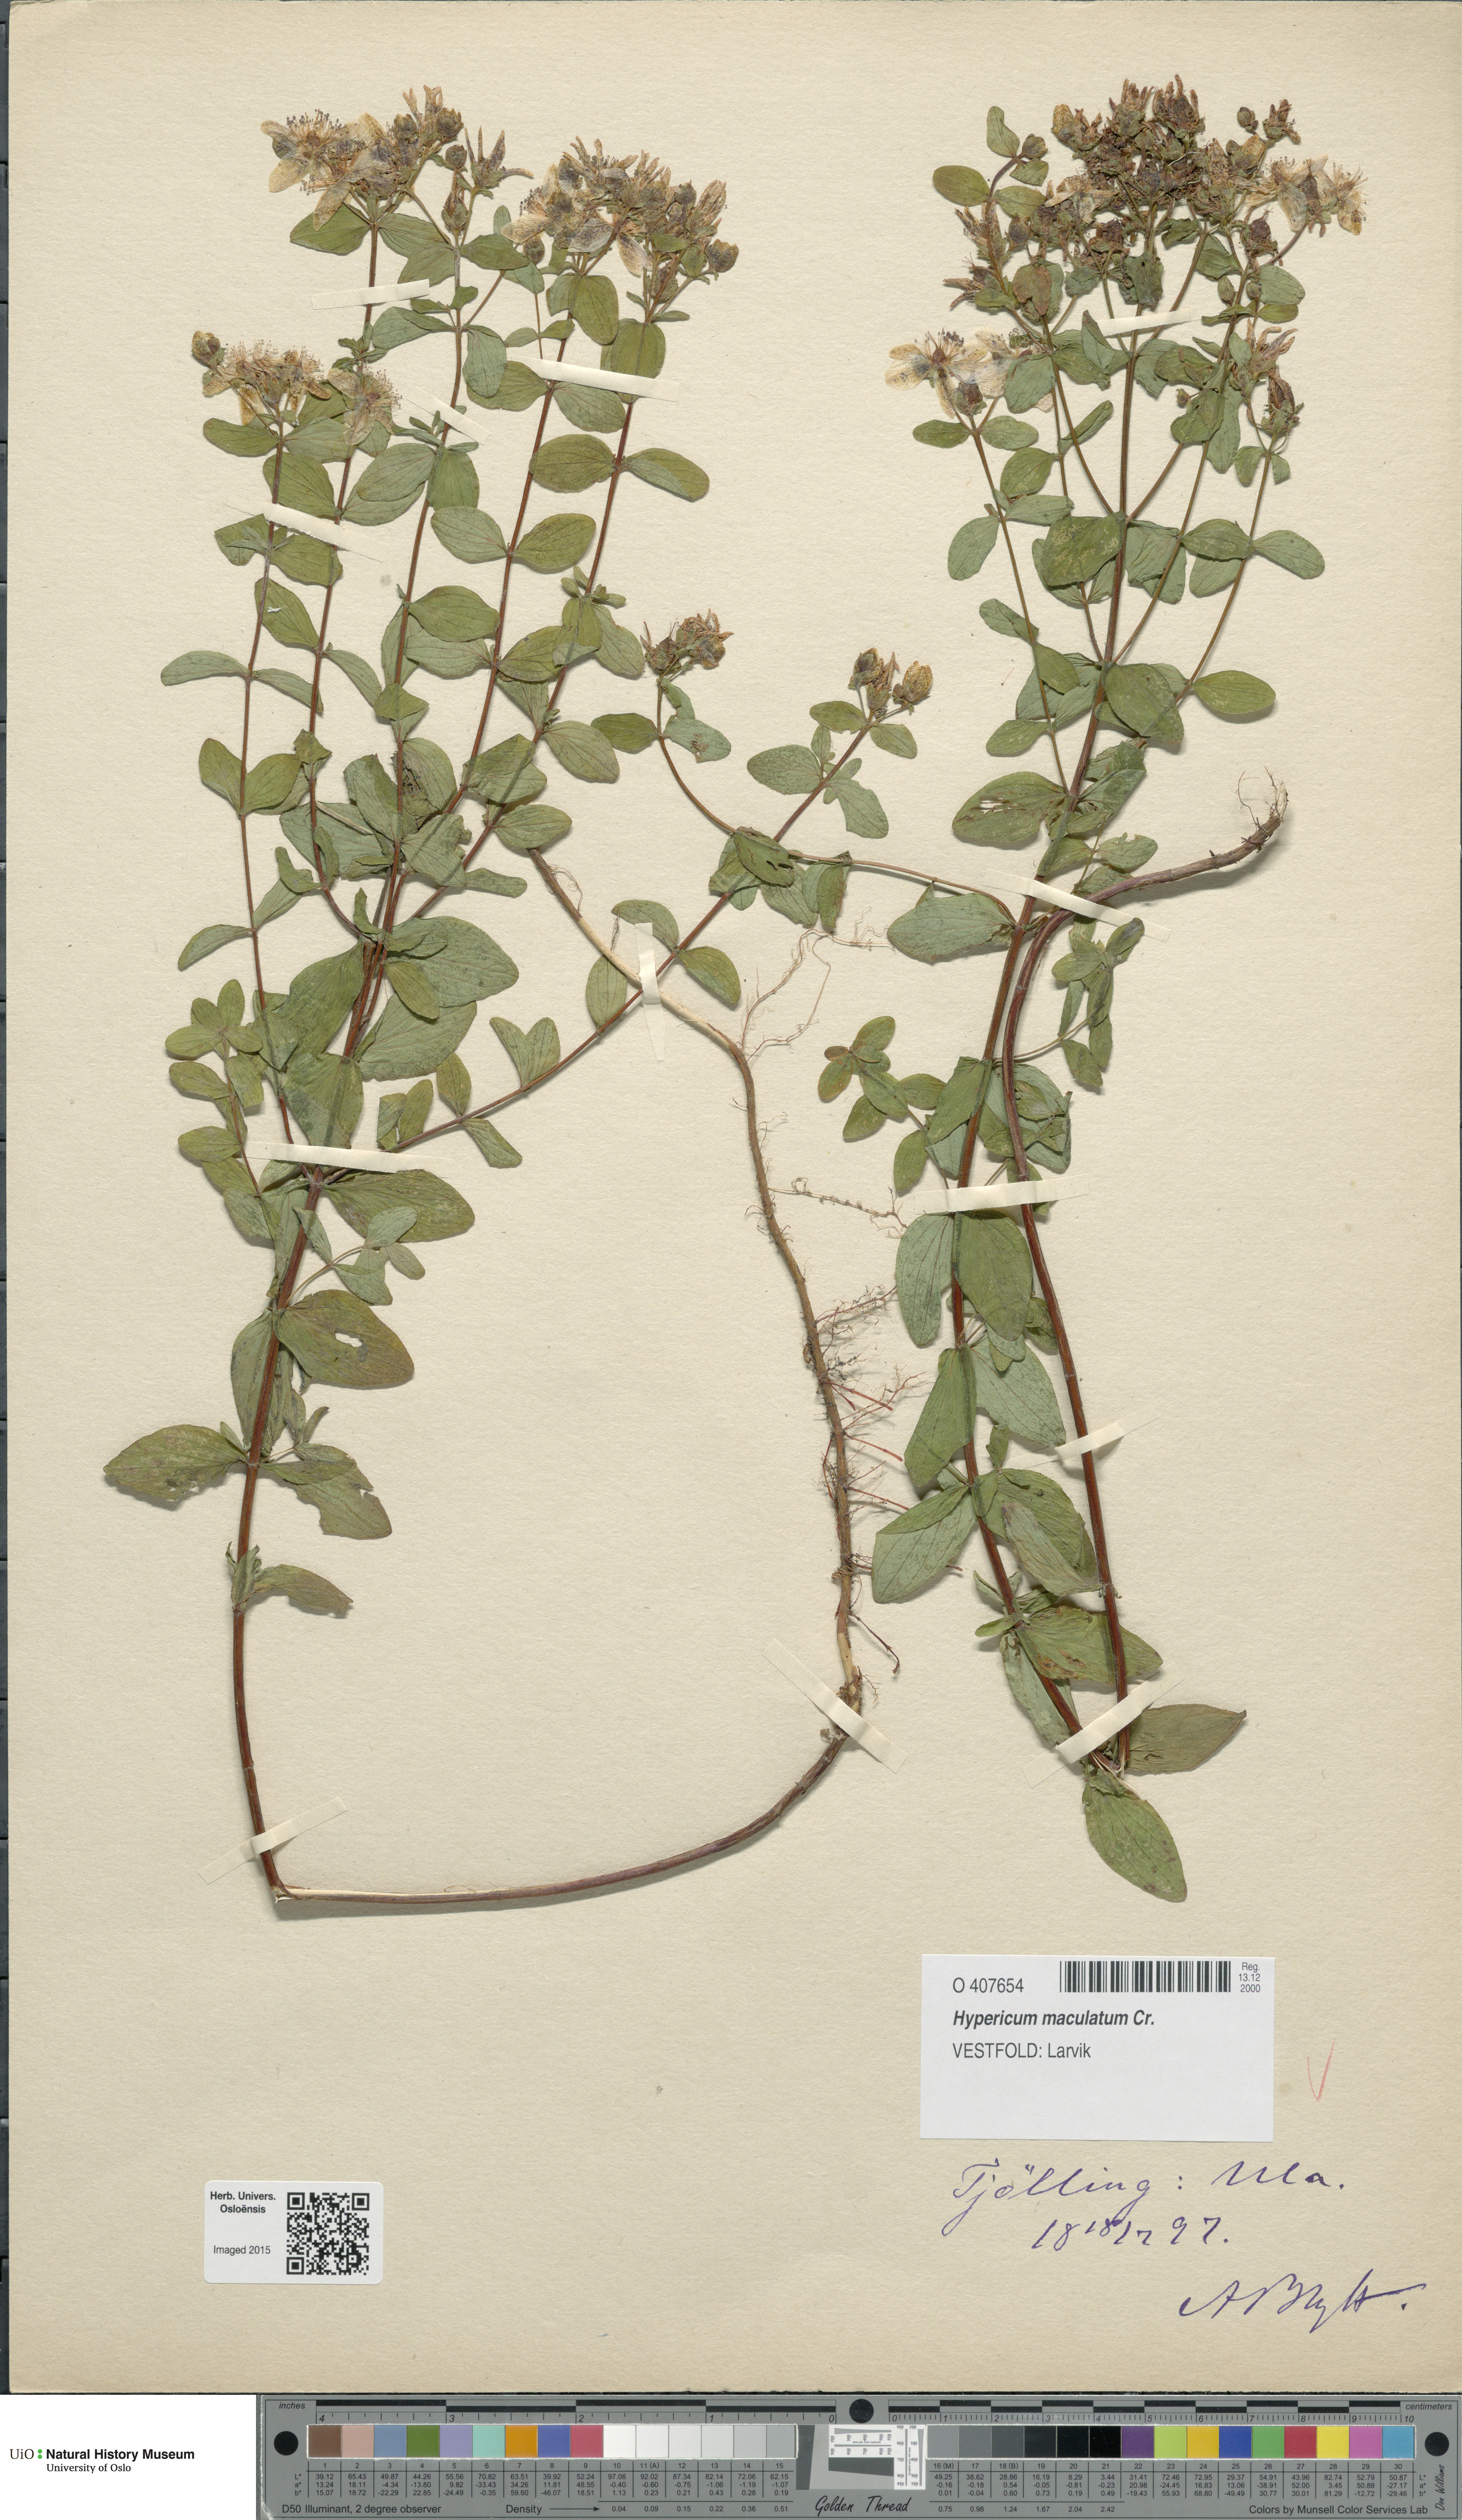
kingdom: Plantae
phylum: Tracheophyta
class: Magnoliopsida
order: Malpighiales
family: Hypericaceae
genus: Hypericum
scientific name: Hypericum maculatum
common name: Imperforate st. john's-wort
